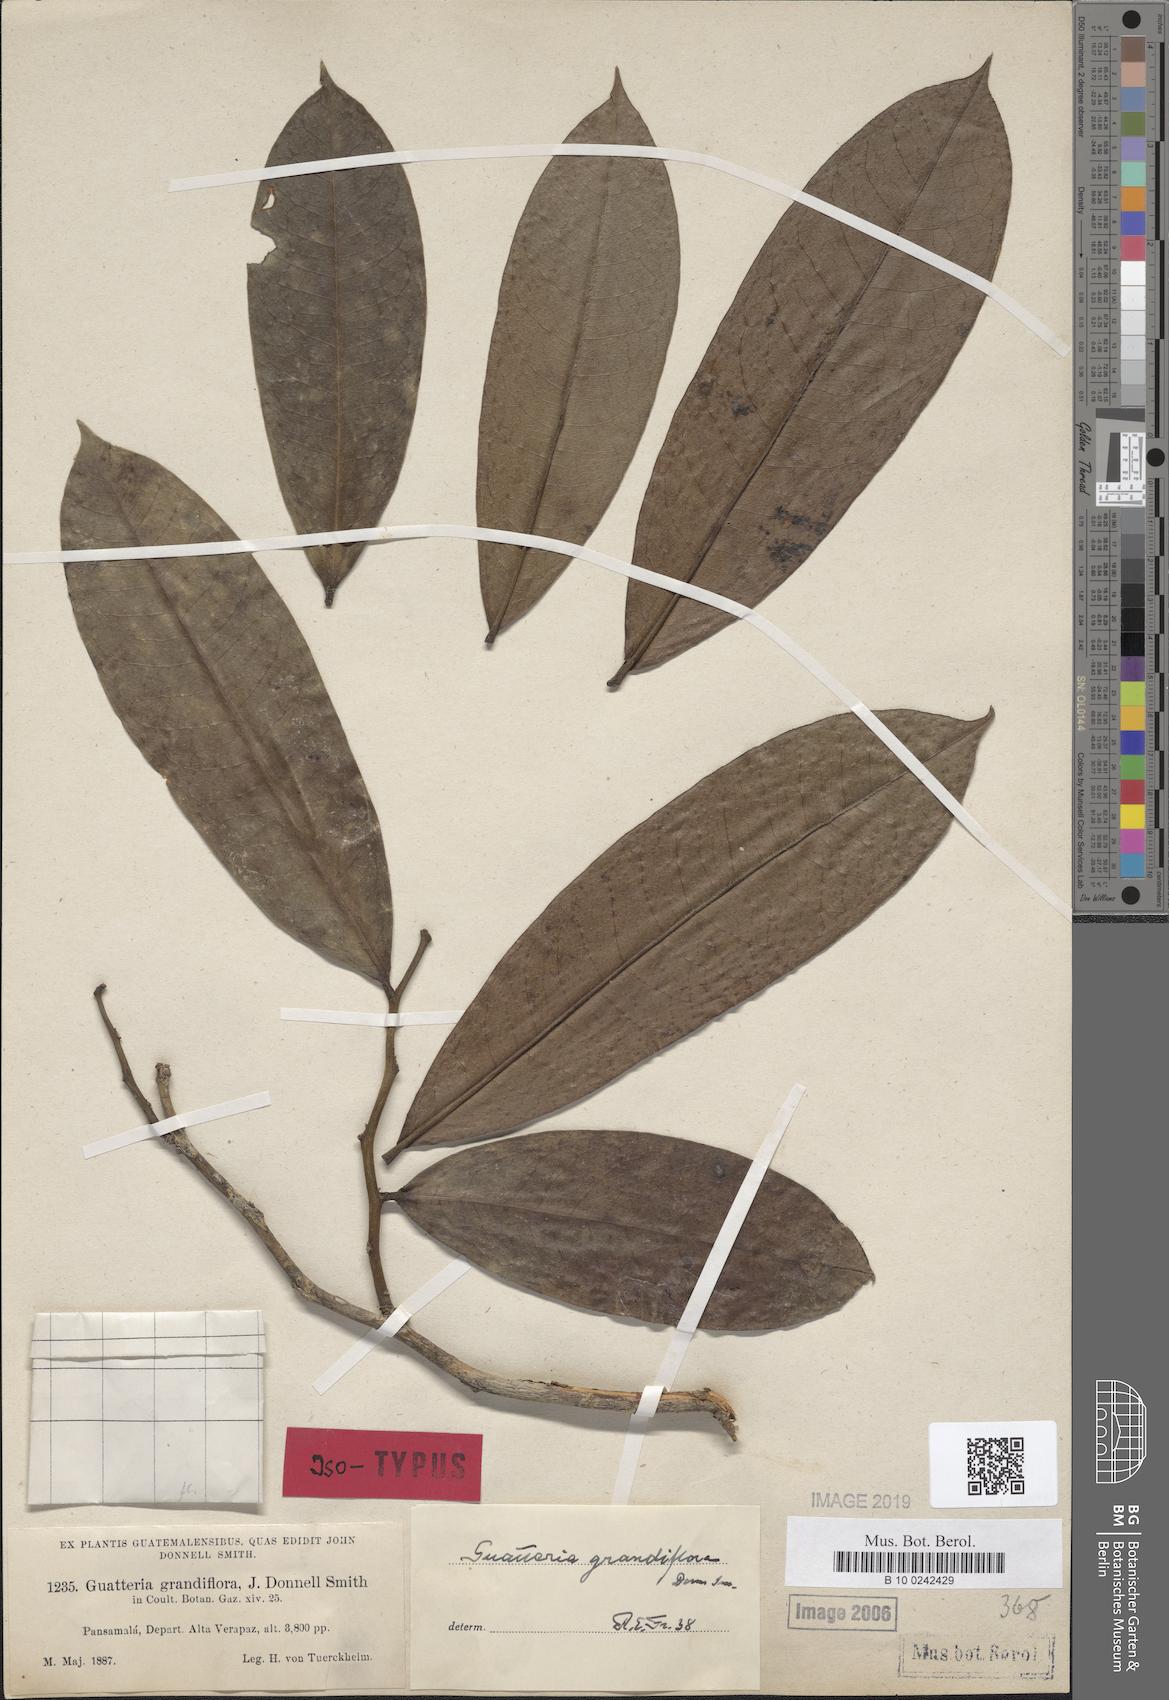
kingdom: Plantae
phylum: Tracheophyta
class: Magnoliopsida
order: Magnoliales
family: Annonaceae
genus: Guatteria
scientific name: Guatteria grandiflora
